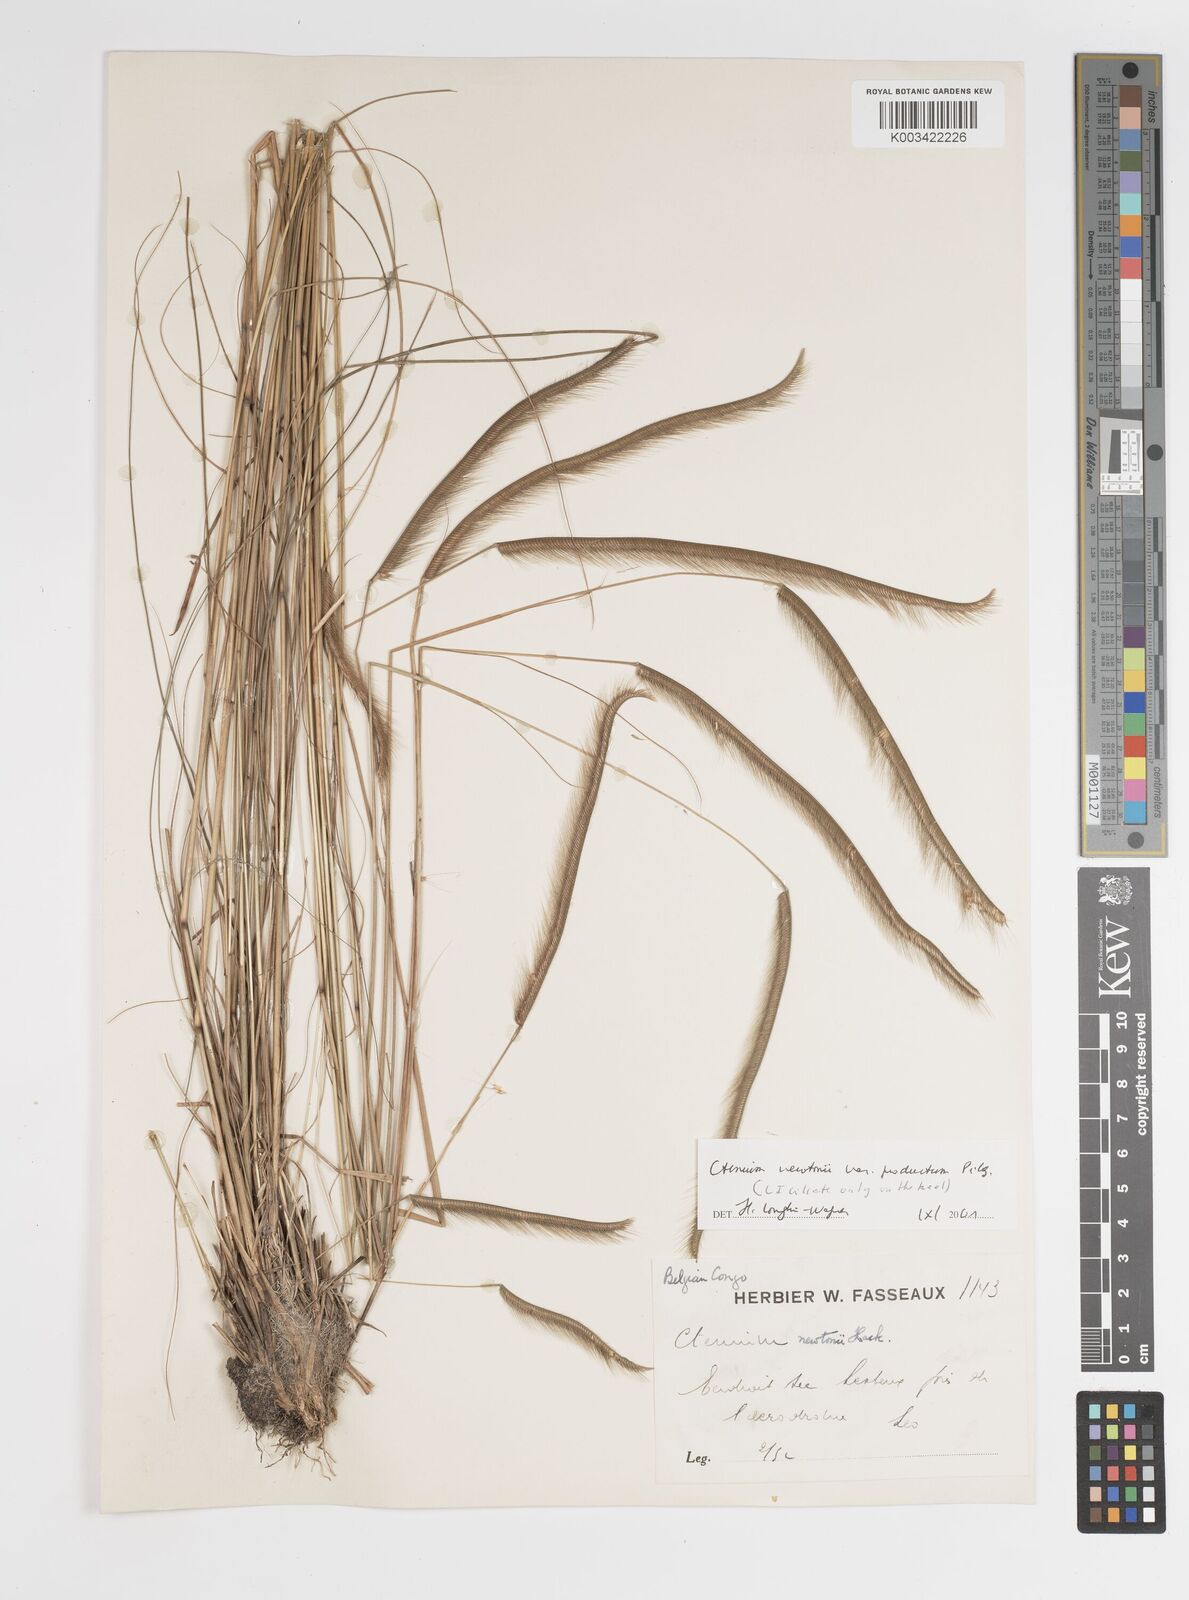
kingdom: Plantae
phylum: Tracheophyta
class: Liliopsida
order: Poales
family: Poaceae
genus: Ctenium
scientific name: Ctenium newtonii
